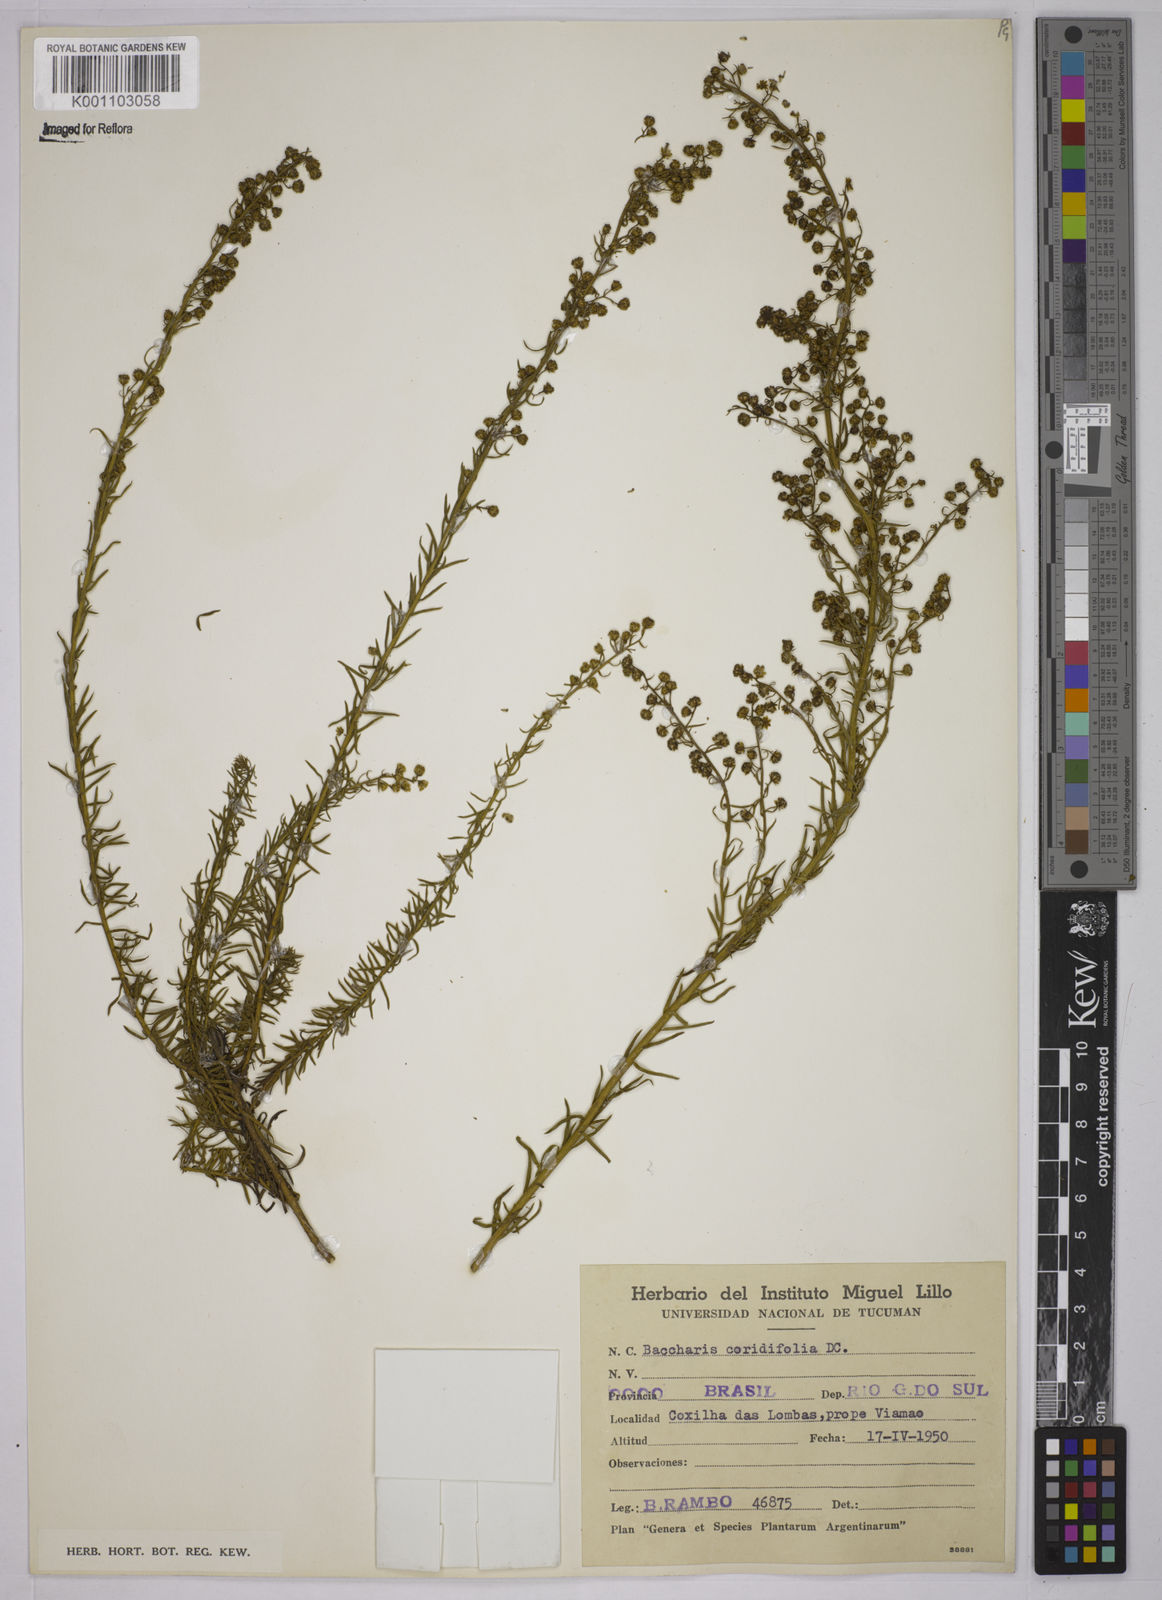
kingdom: Plantae
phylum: Tracheophyta
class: Magnoliopsida
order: Asterales
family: Asteraceae
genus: Baccharis
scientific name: Baccharis coridifolia
